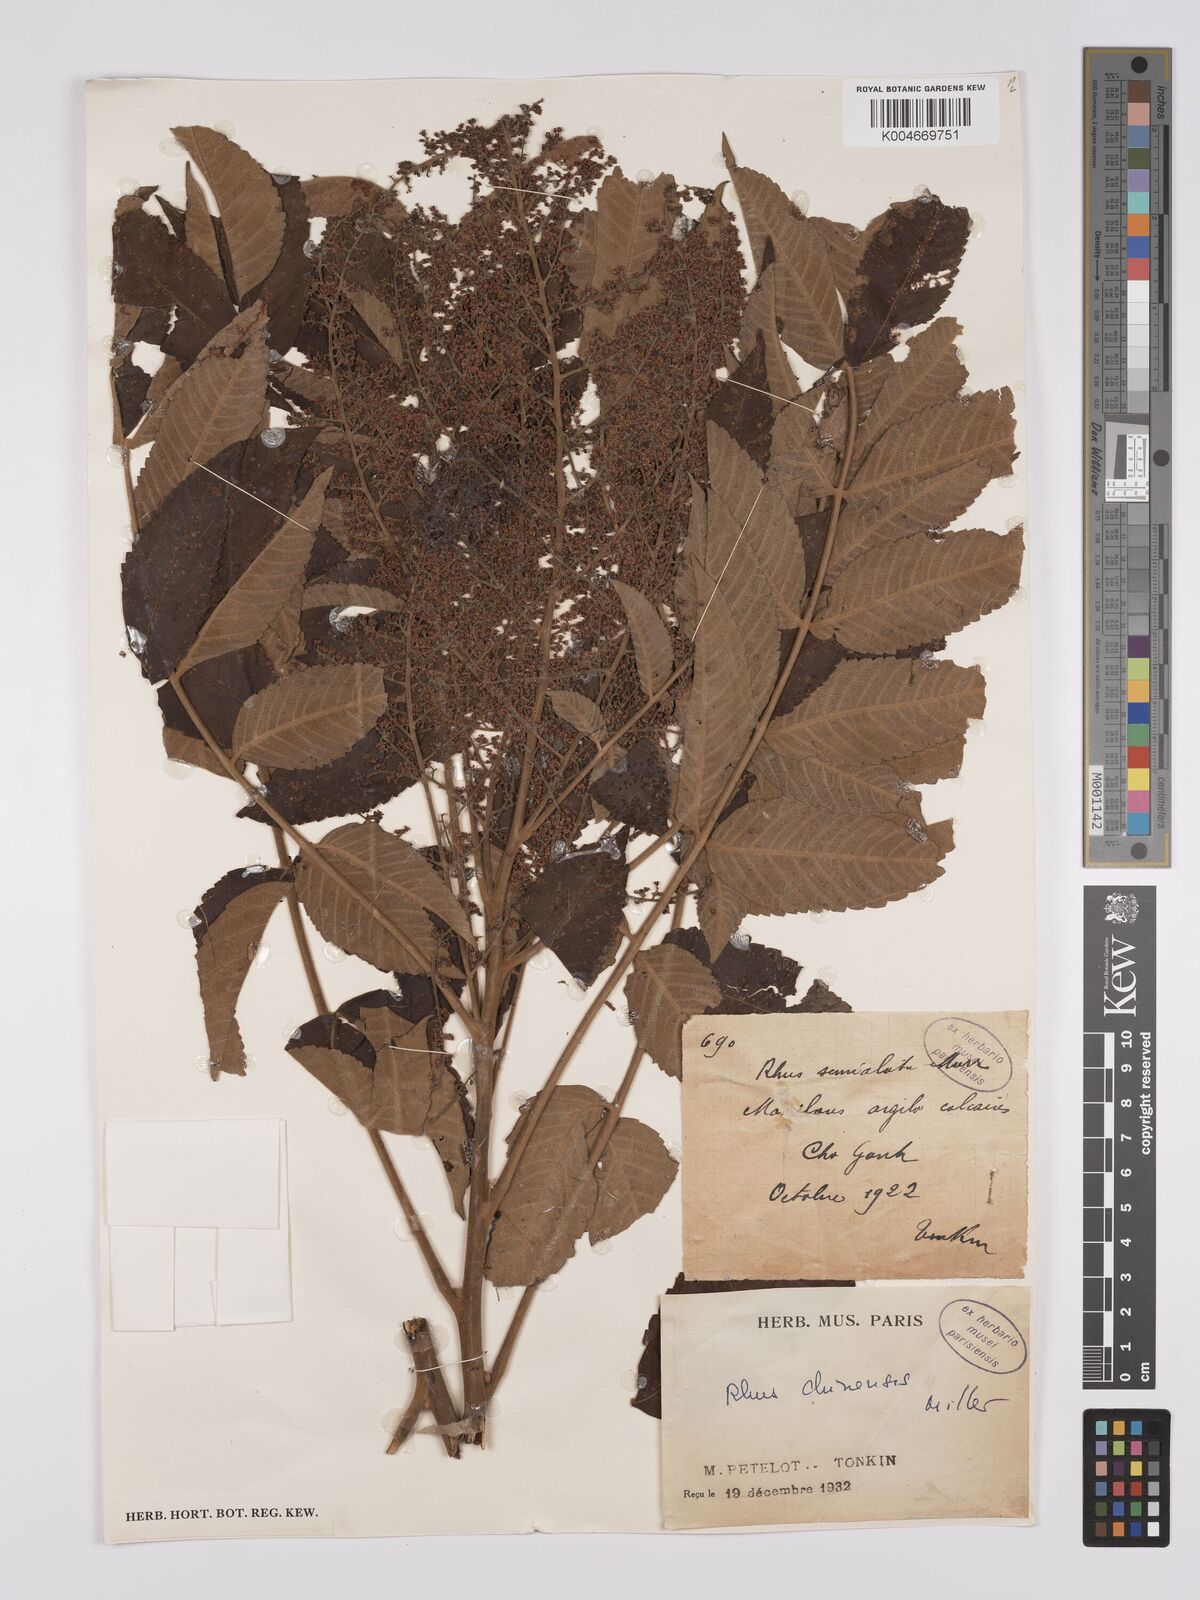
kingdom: Plantae
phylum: Tracheophyta
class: Magnoliopsida
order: Sapindales
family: Anacardiaceae
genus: Rhus
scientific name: Rhus chinensis
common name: Chinese gall
